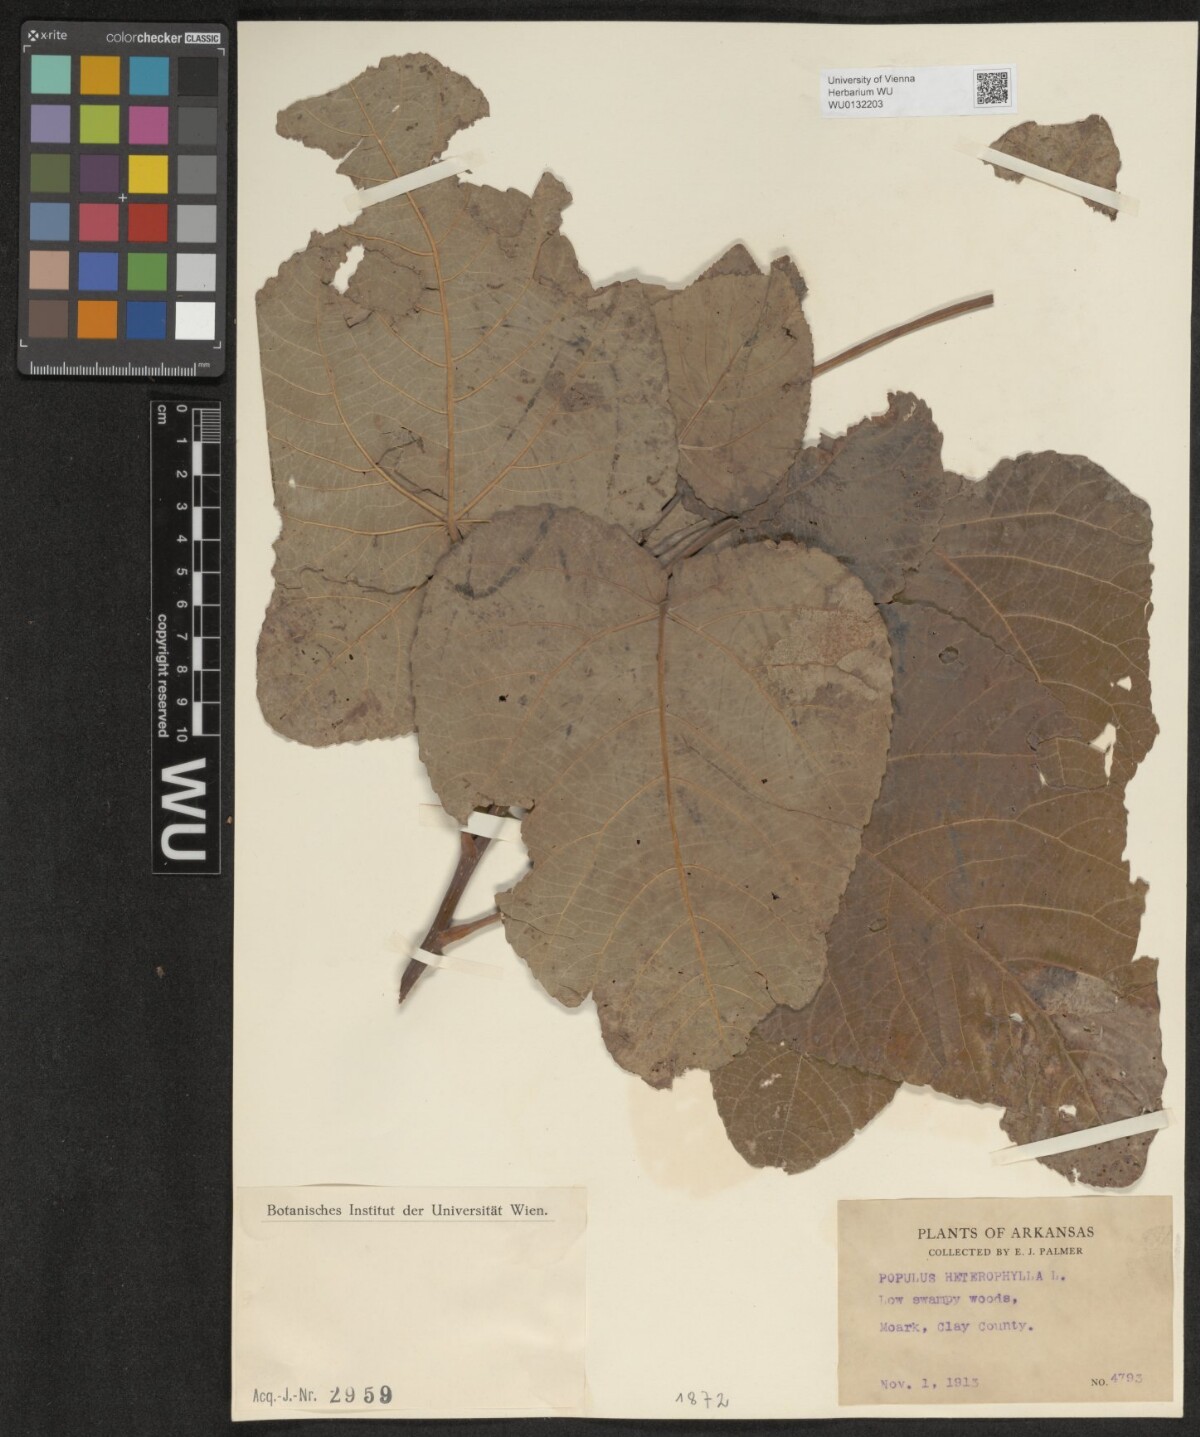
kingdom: Plantae
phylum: Tracheophyta
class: Magnoliopsida
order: Malpighiales
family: Salicaceae
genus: Populus
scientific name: Populus heterophylla
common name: Downy poplar
